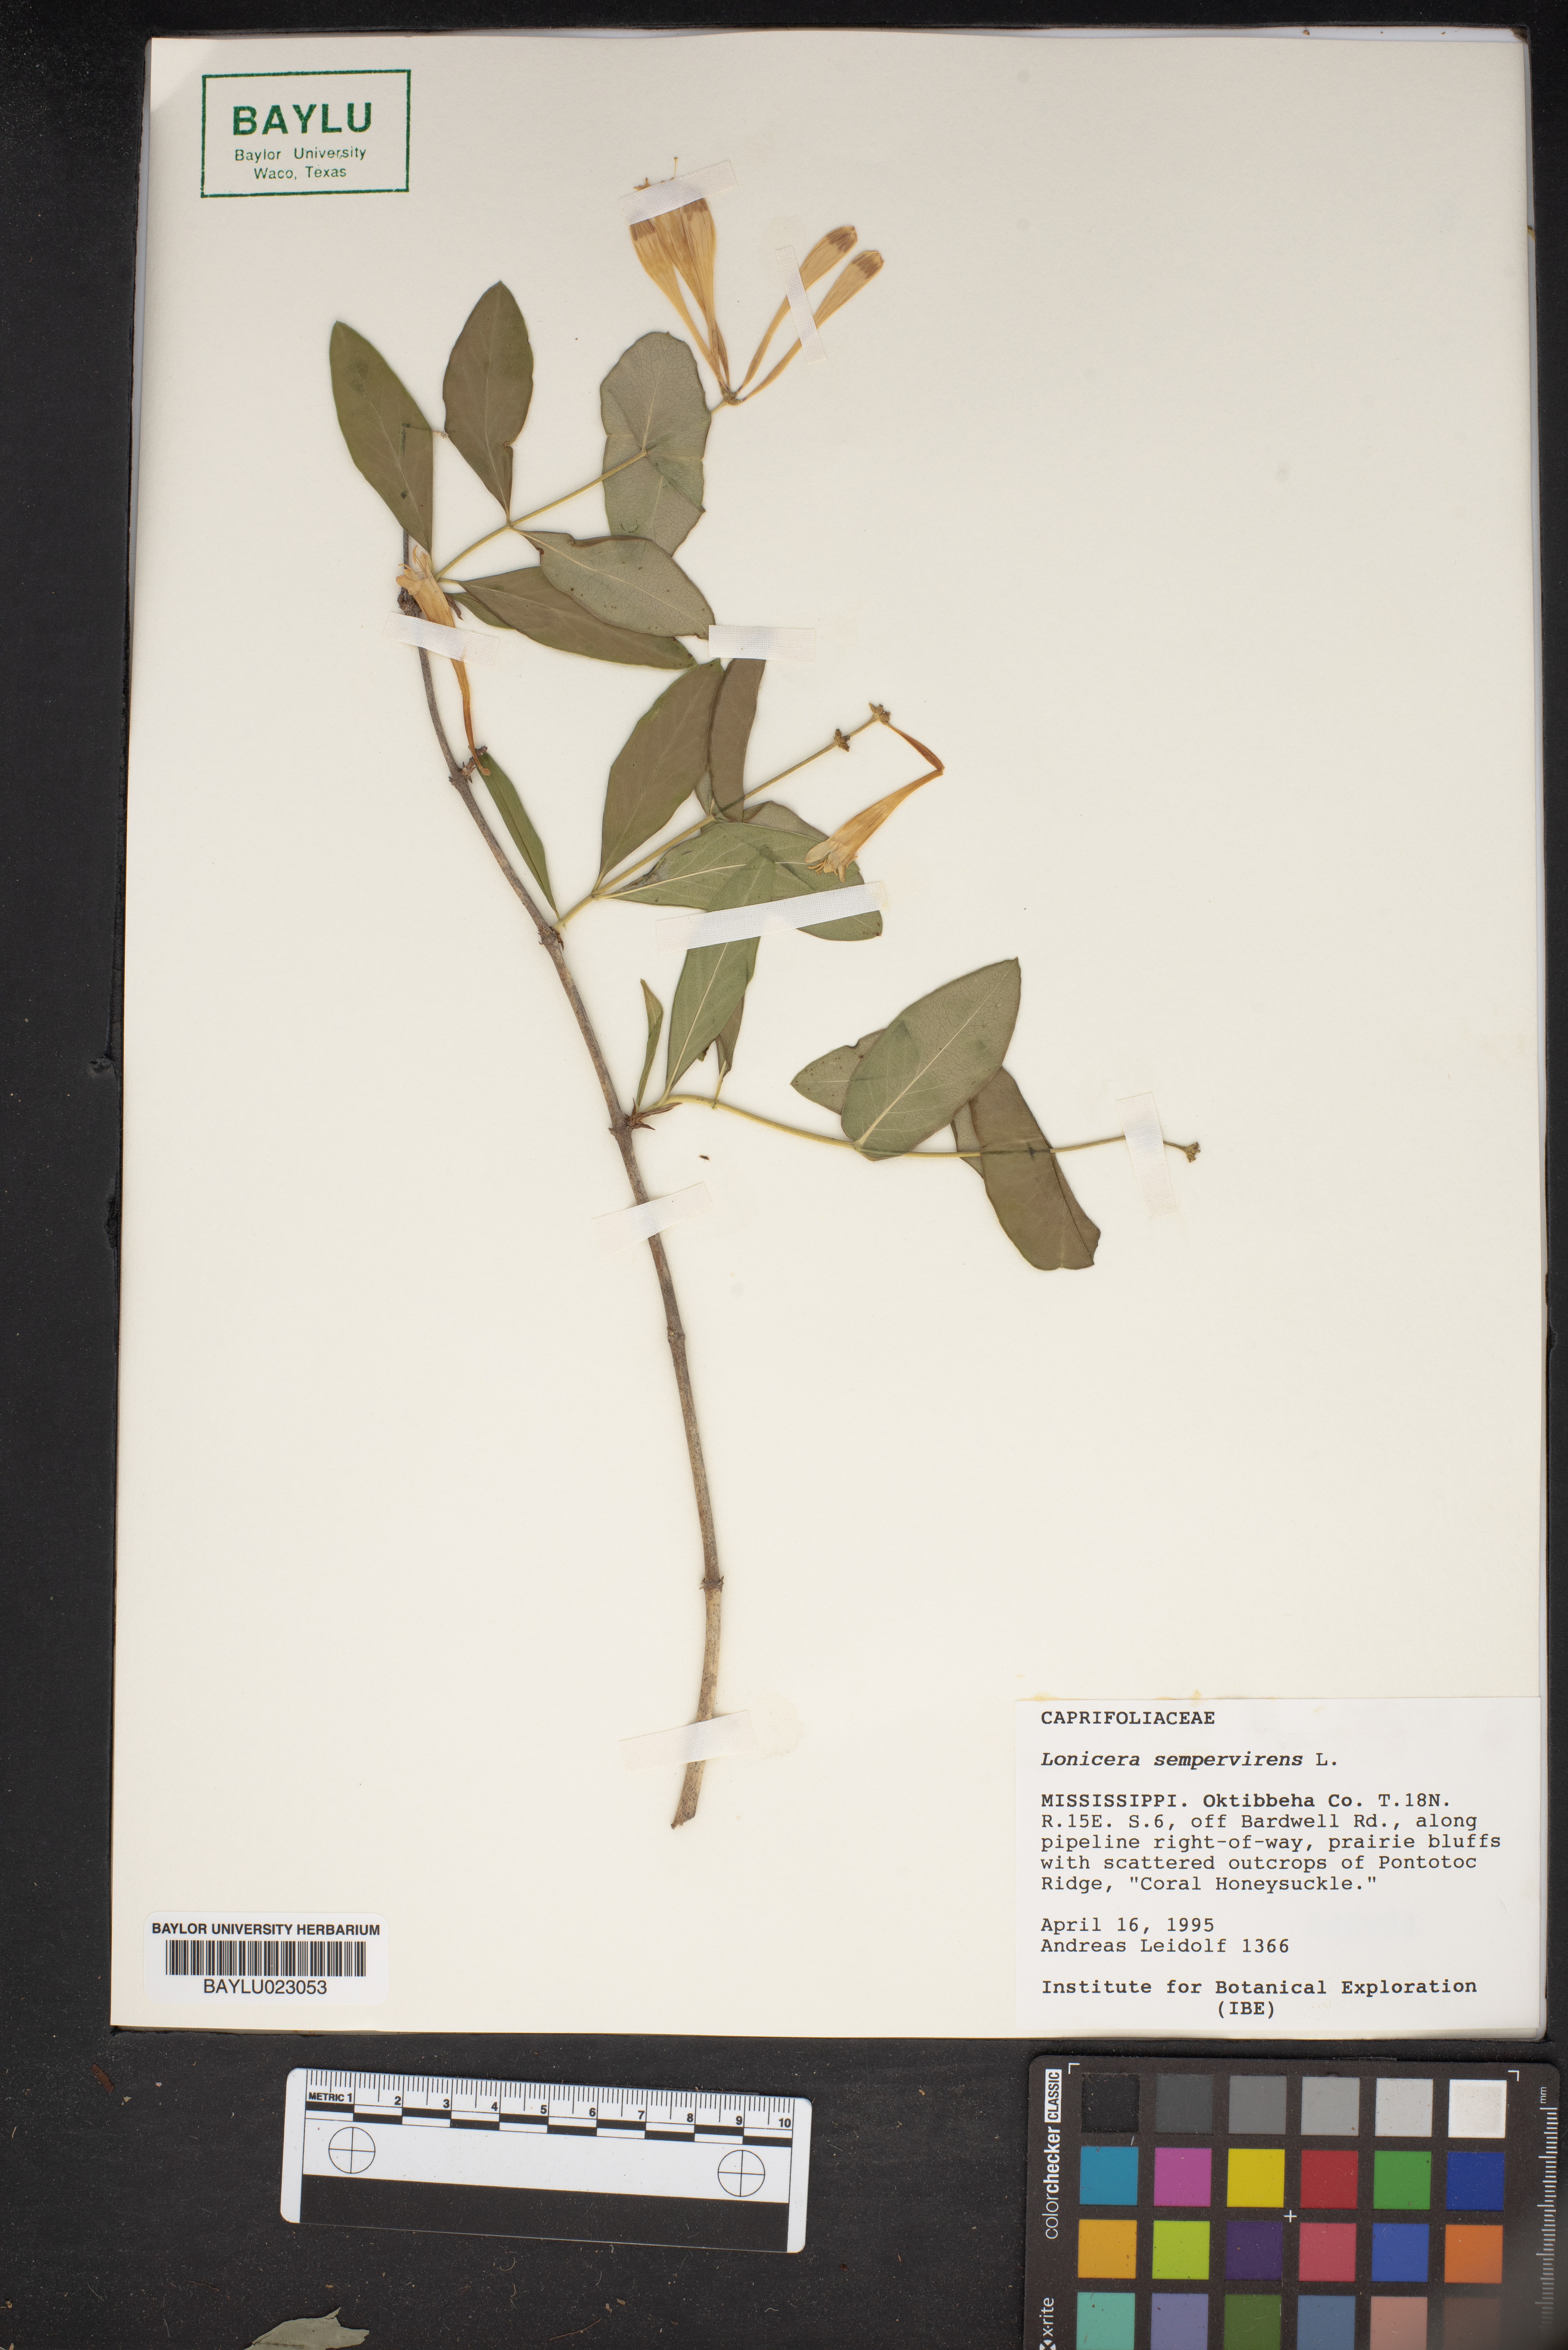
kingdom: Plantae
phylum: Tracheophyta
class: Magnoliopsida
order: Dipsacales
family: Caprifoliaceae
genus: Lonicera
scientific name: Lonicera sempervirens
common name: Coral honeysuckle
